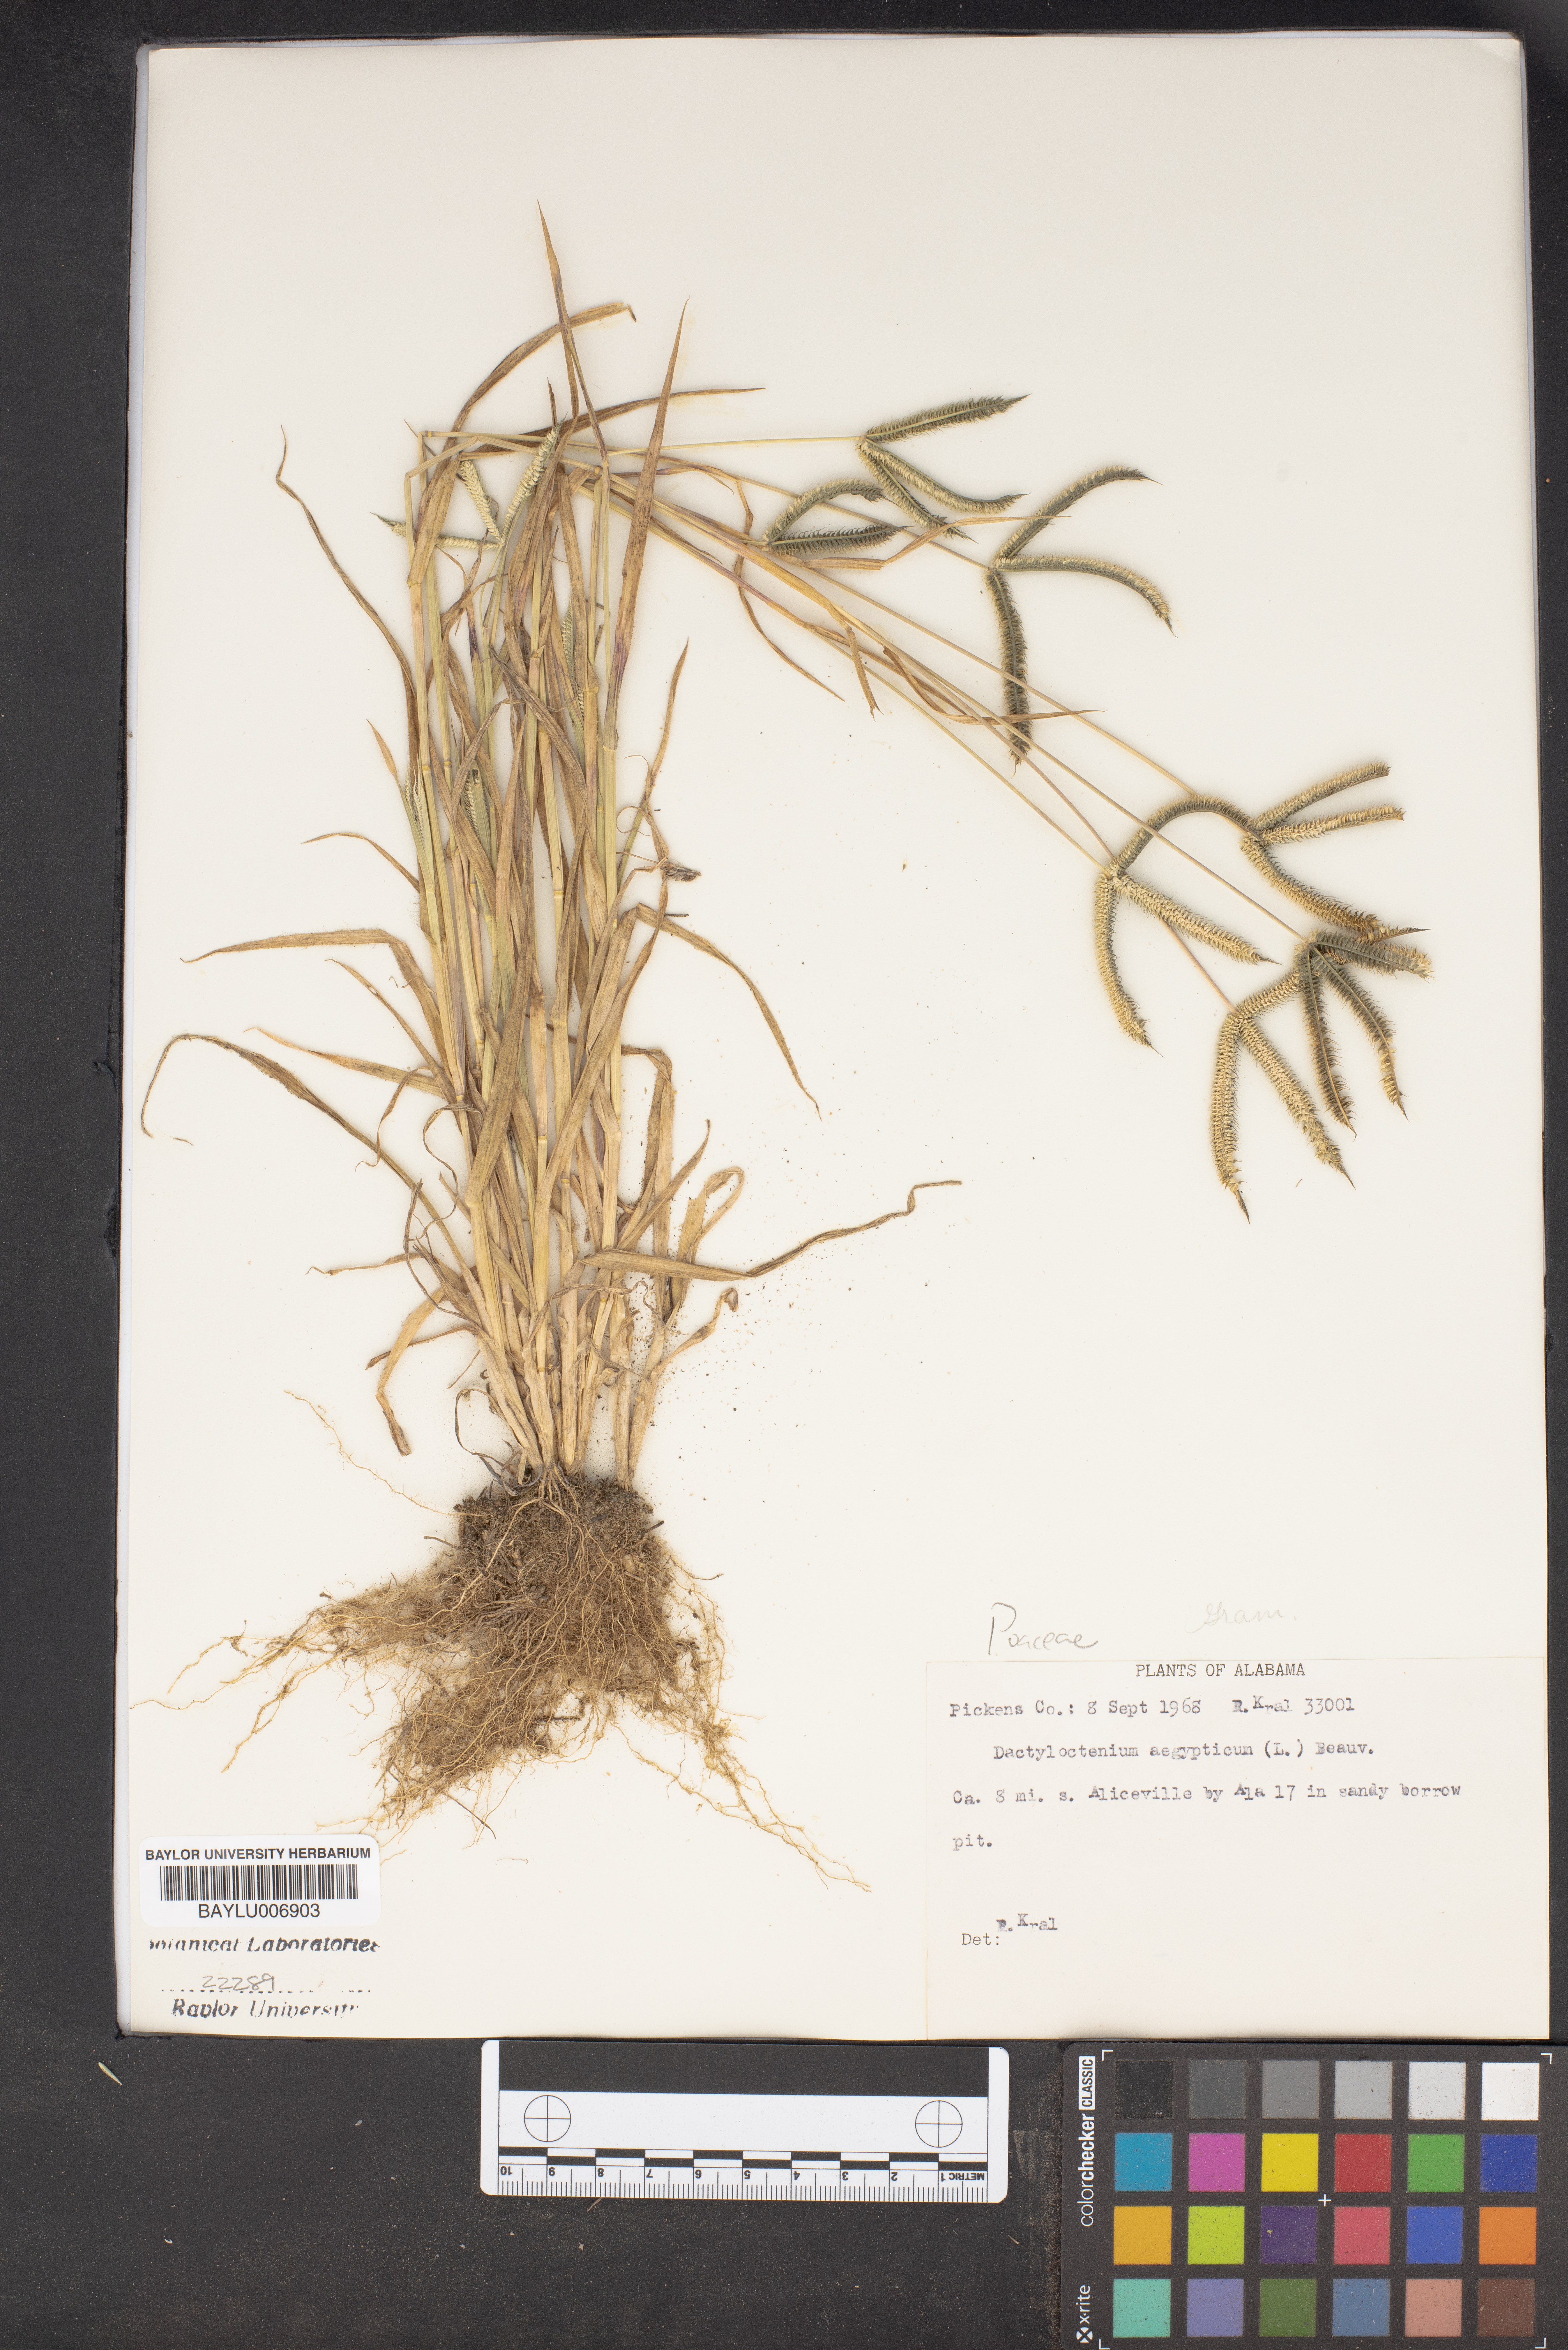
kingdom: Plantae
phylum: Tracheophyta
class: Liliopsida
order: Poales
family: Poaceae
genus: Dactyloctenium
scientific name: Dactyloctenium aegyptium
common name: Egyptian grass
